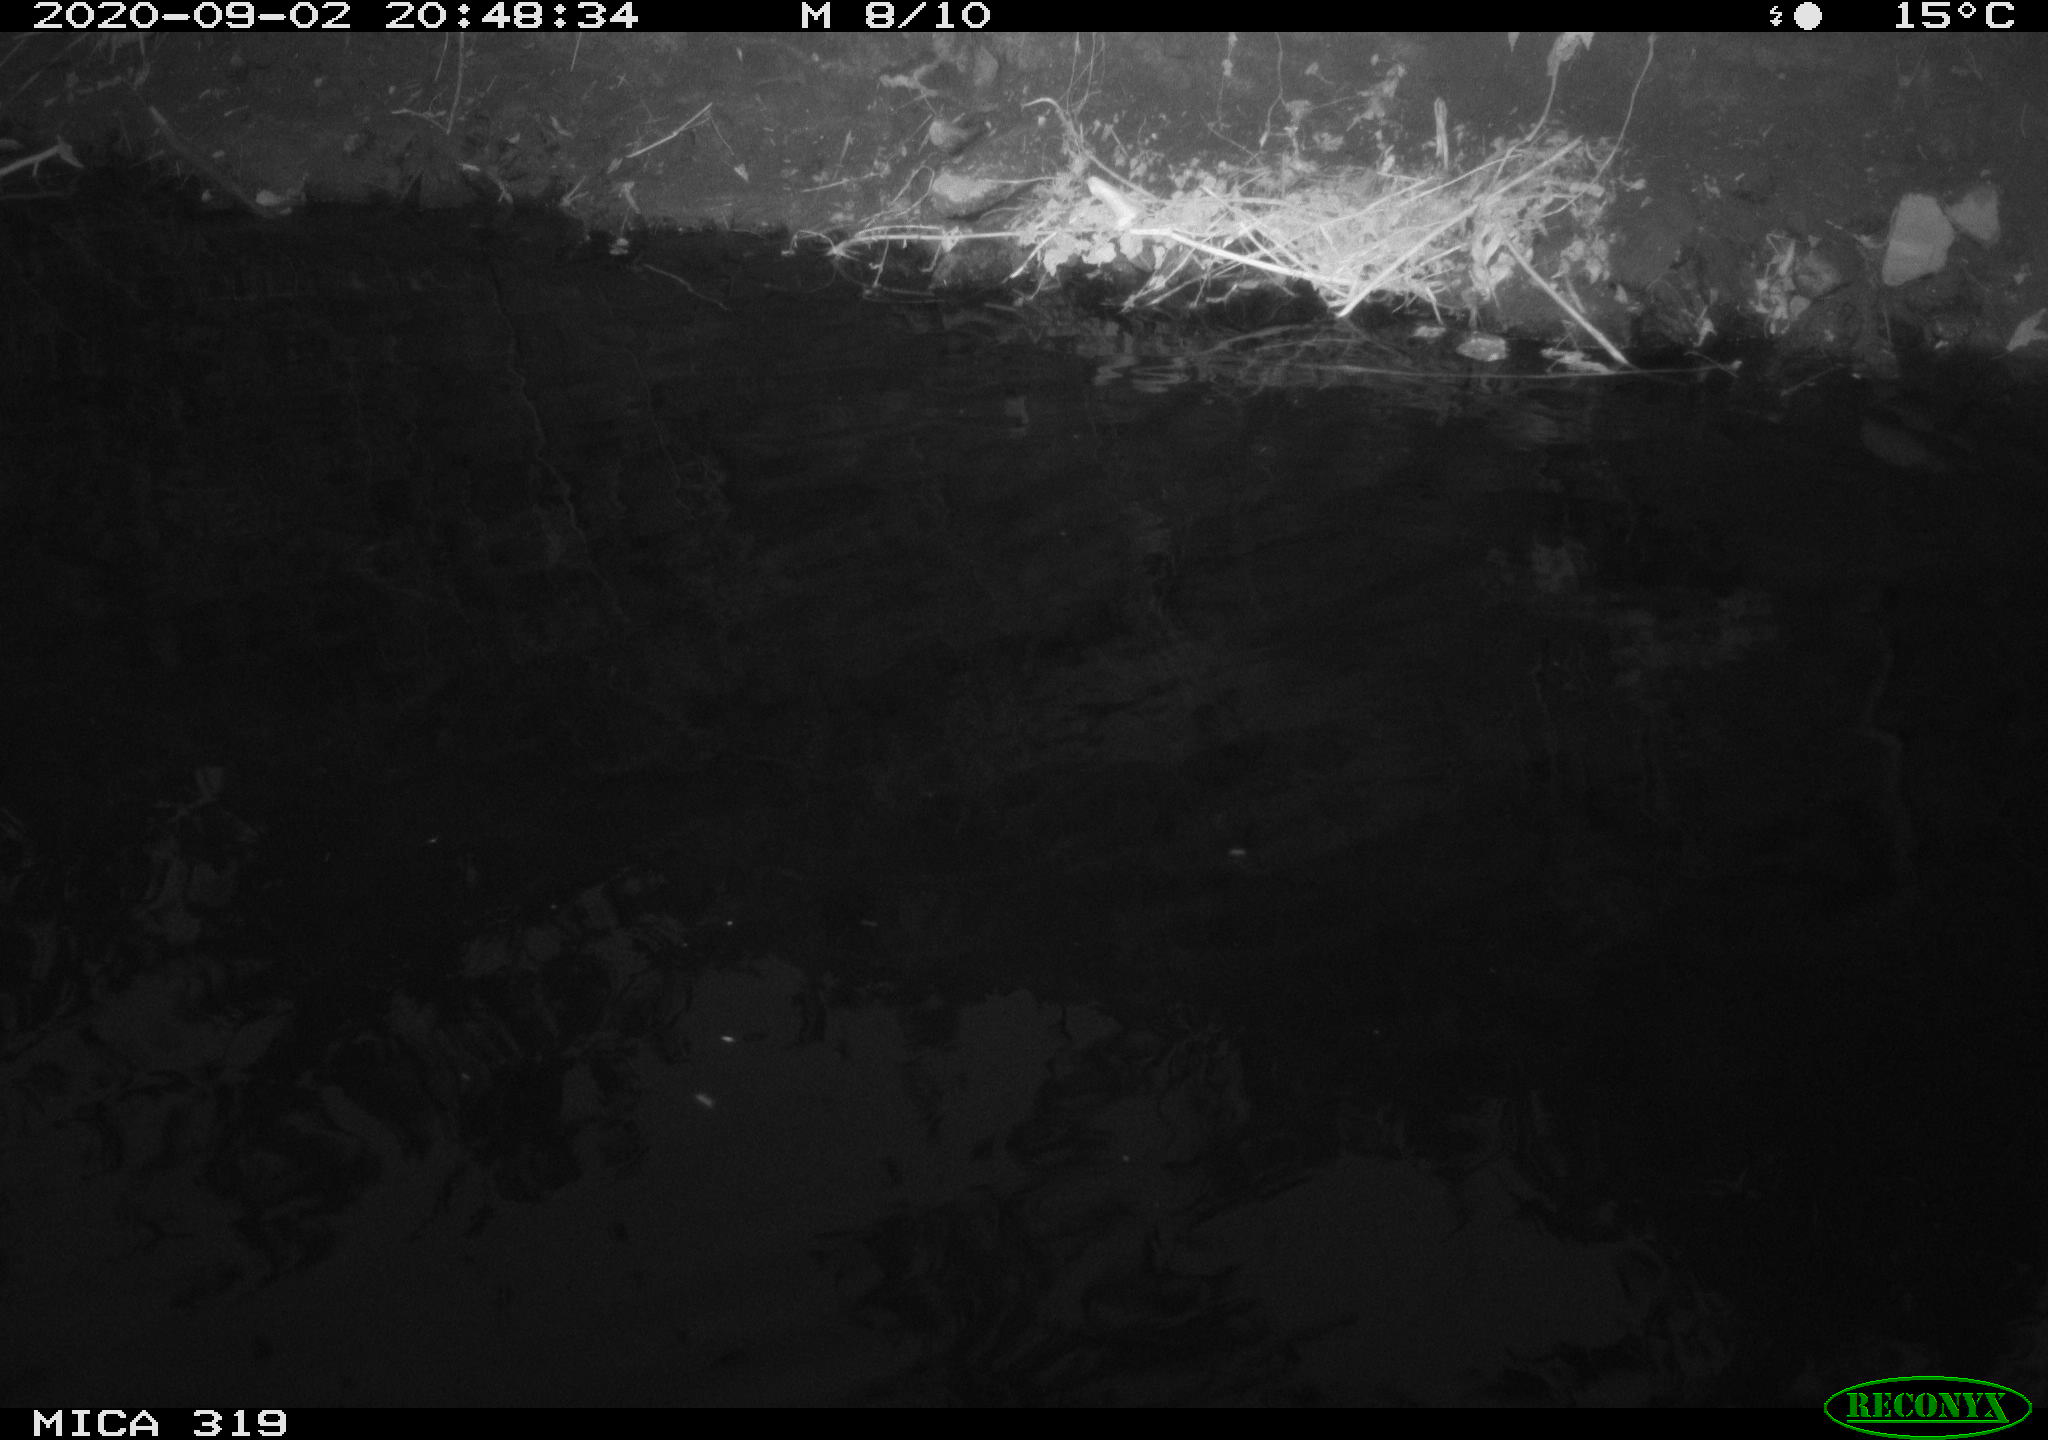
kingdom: Animalia
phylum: Chordata
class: Aves
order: Anseriformes
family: Anatidae
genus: Anas
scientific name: Anas platyrhynchos
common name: Mallard
